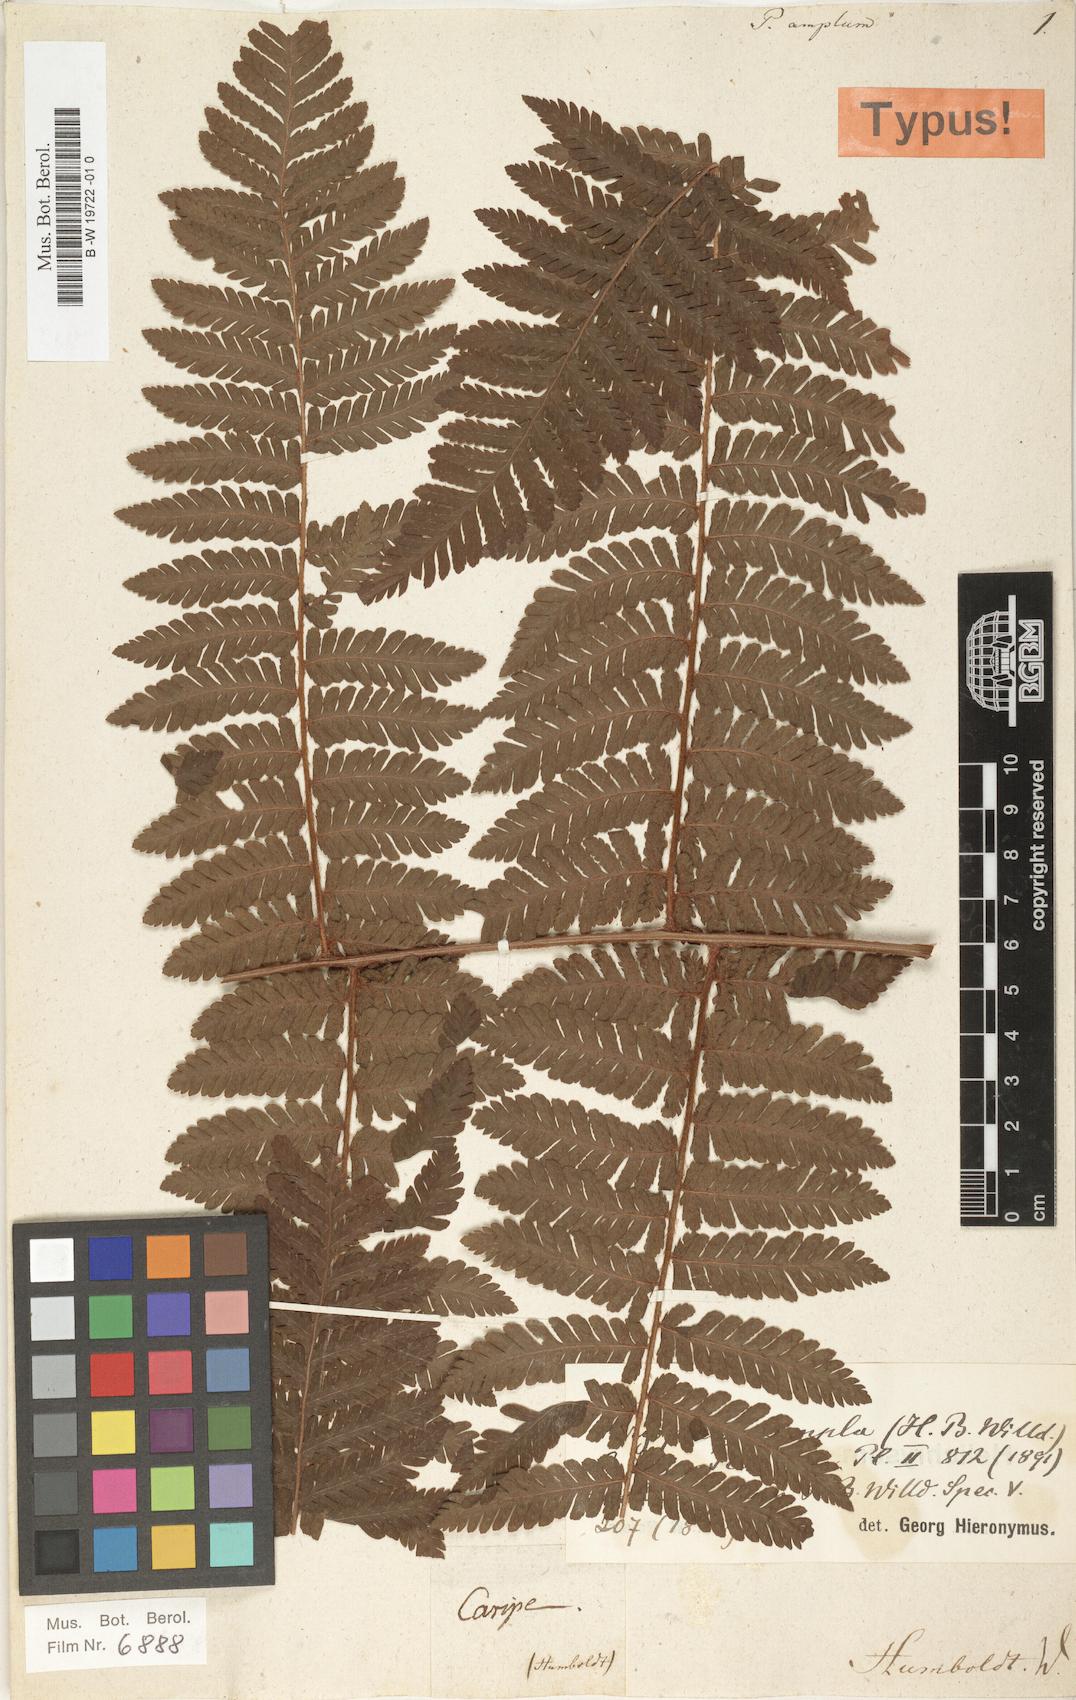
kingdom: Plantae
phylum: Tracheophyta
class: Polypodiopsida
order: Polypodiales
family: Dryopteridaceae
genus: Ctenitis
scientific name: Ctenitis sloanei
